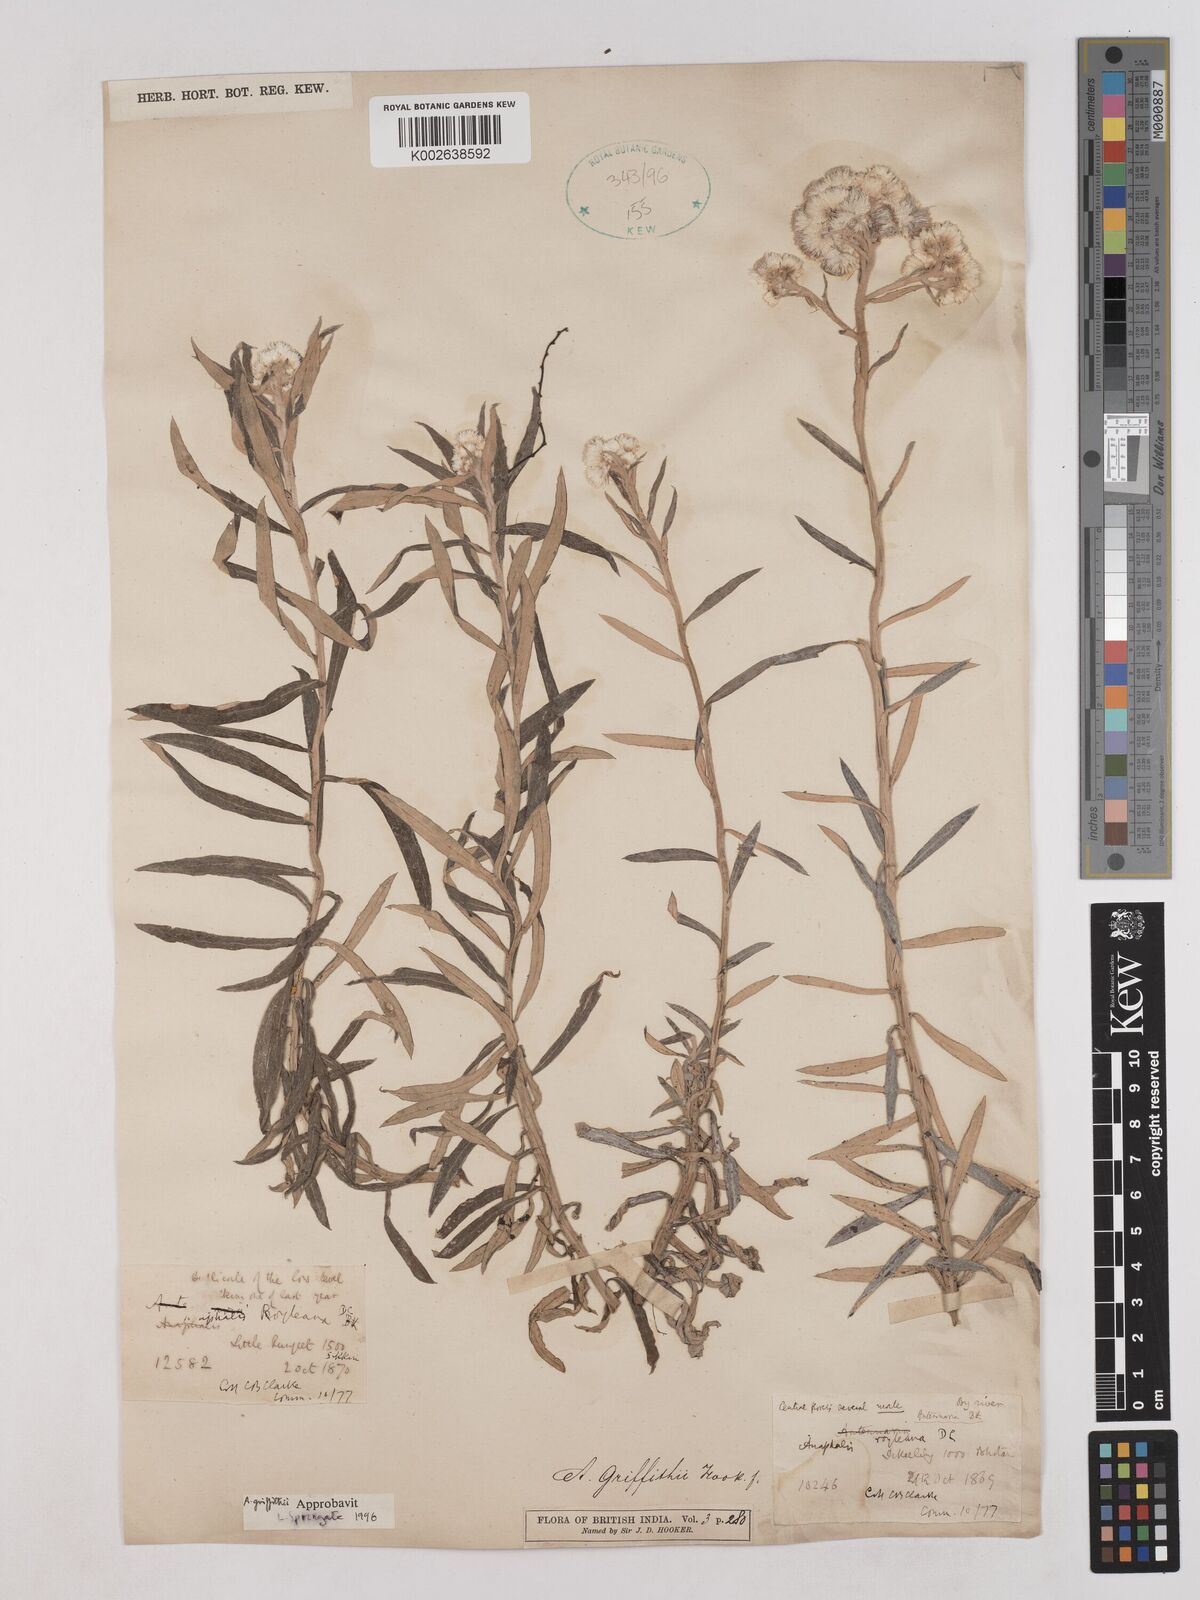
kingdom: Plantae
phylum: Tracheophyta
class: Magnoliopsida
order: Asterales
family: Asteraceae
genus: Anaphalis
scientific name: Anaphalis griffithii
